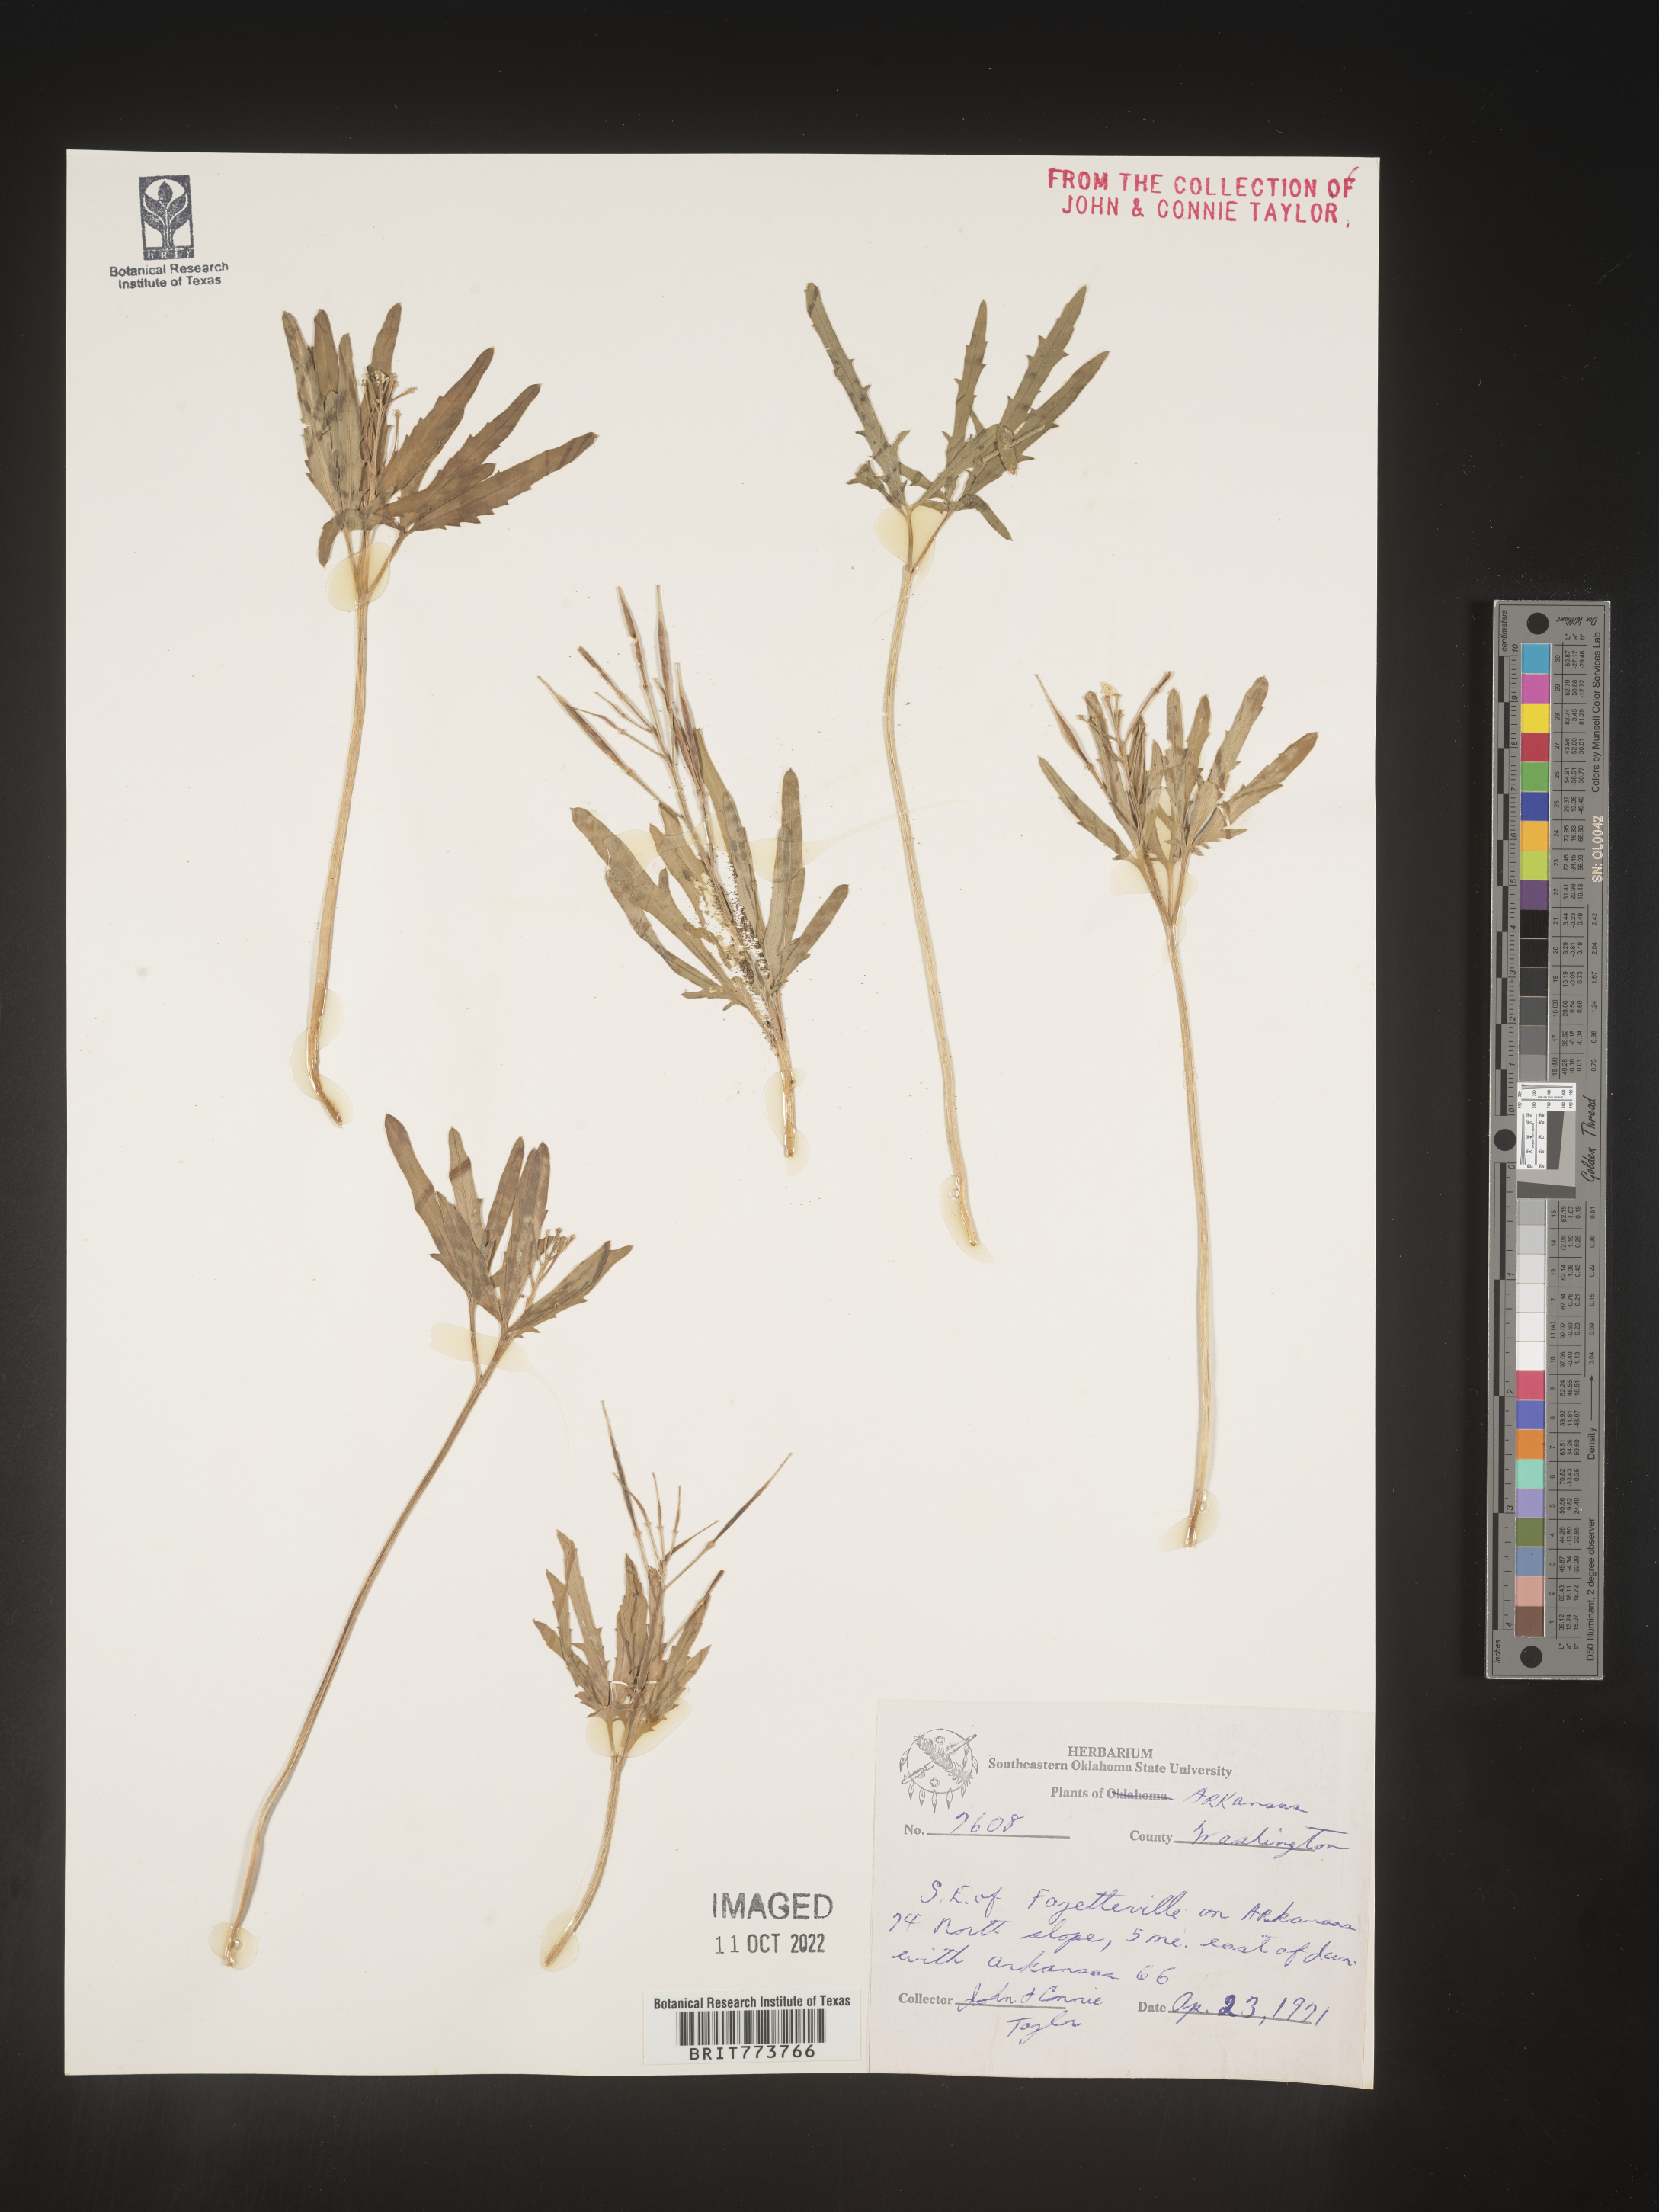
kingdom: Plantae
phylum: Tracheophyta
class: Magnoliopsida
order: Brassicales
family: Brassicaceae
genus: Rorippa
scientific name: Rorippa laciniata
